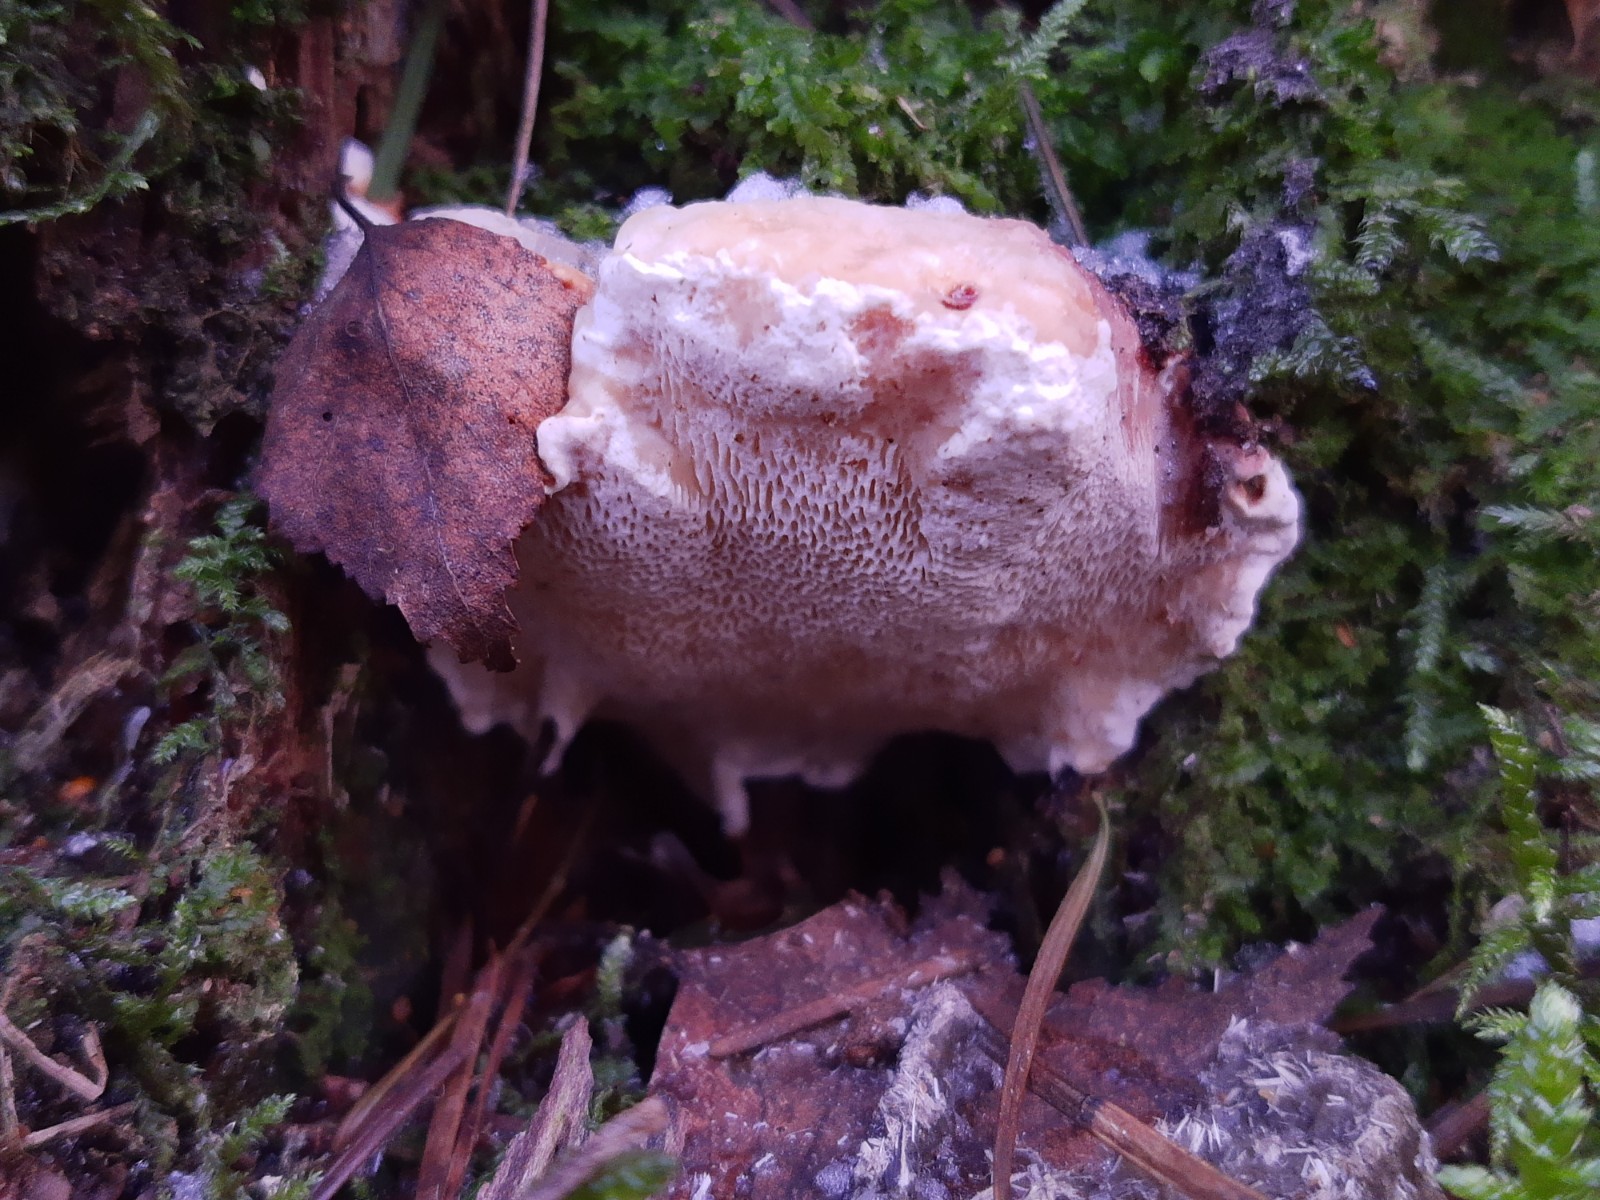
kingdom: Fungi
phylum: Basidiomycota
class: Agaricomycetes
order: Russulales
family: Bondarzewiaceae
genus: Heterobasidion
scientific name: Heterobasidion annosum
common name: almindelig rodfordærver
